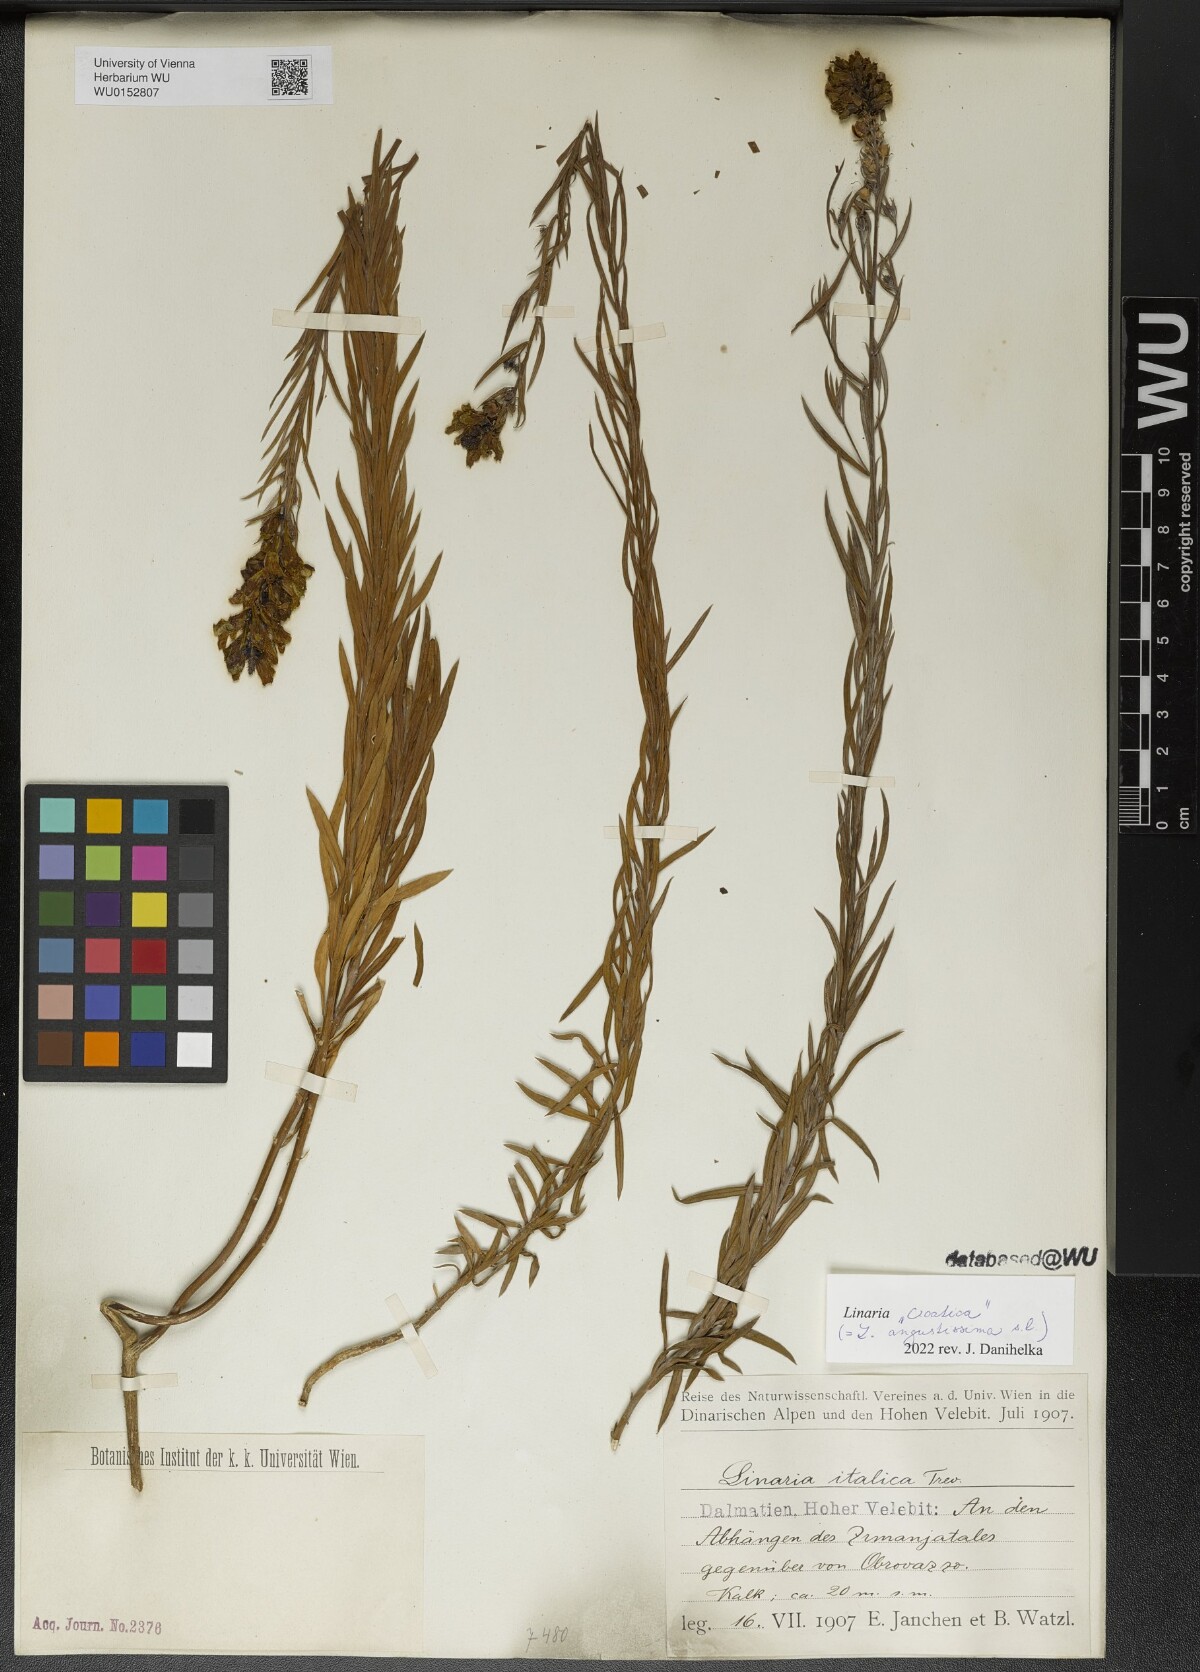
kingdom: Plantae
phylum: Tracheophyta
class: Magnoliopsida
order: Lamiales
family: Plantaginaceae
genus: Linaria
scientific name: Linaria angustissima
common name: Italian toadflax
